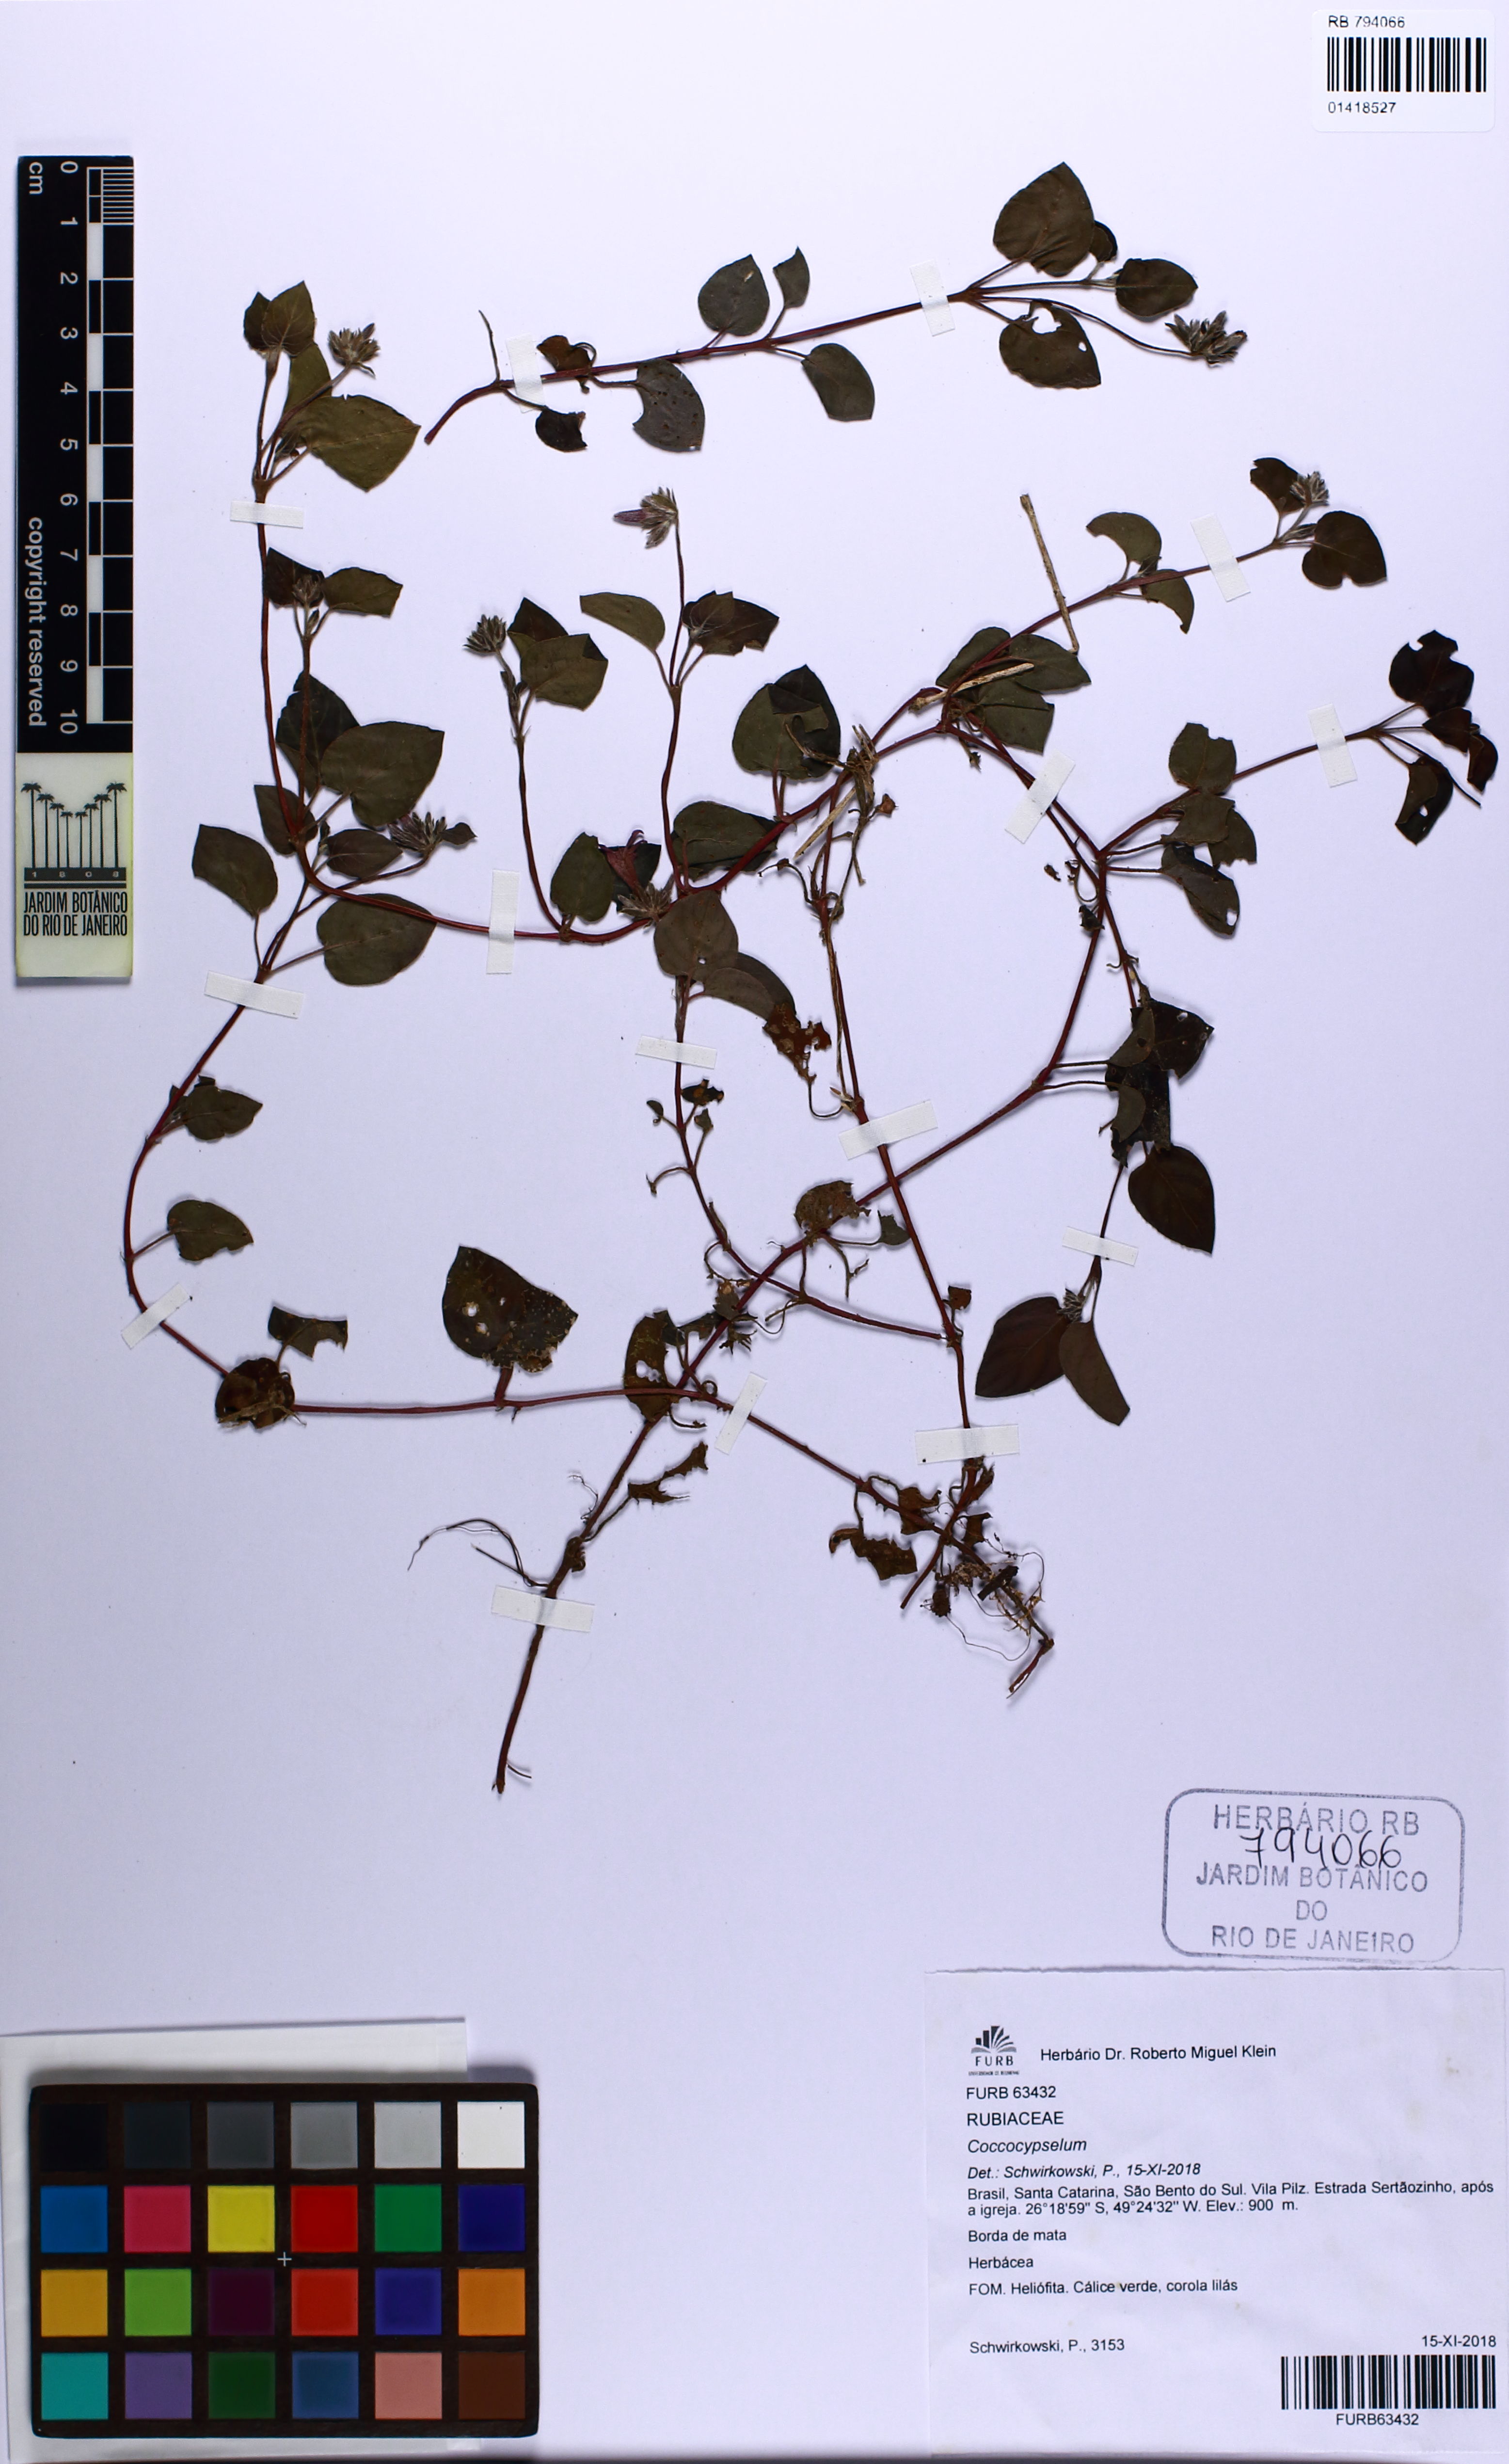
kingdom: Plantae
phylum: Tracheophyta
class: Magnoliopsida
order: Gentianales
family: Rubiaceae
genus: Coccocypselum
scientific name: Coccocypselum
